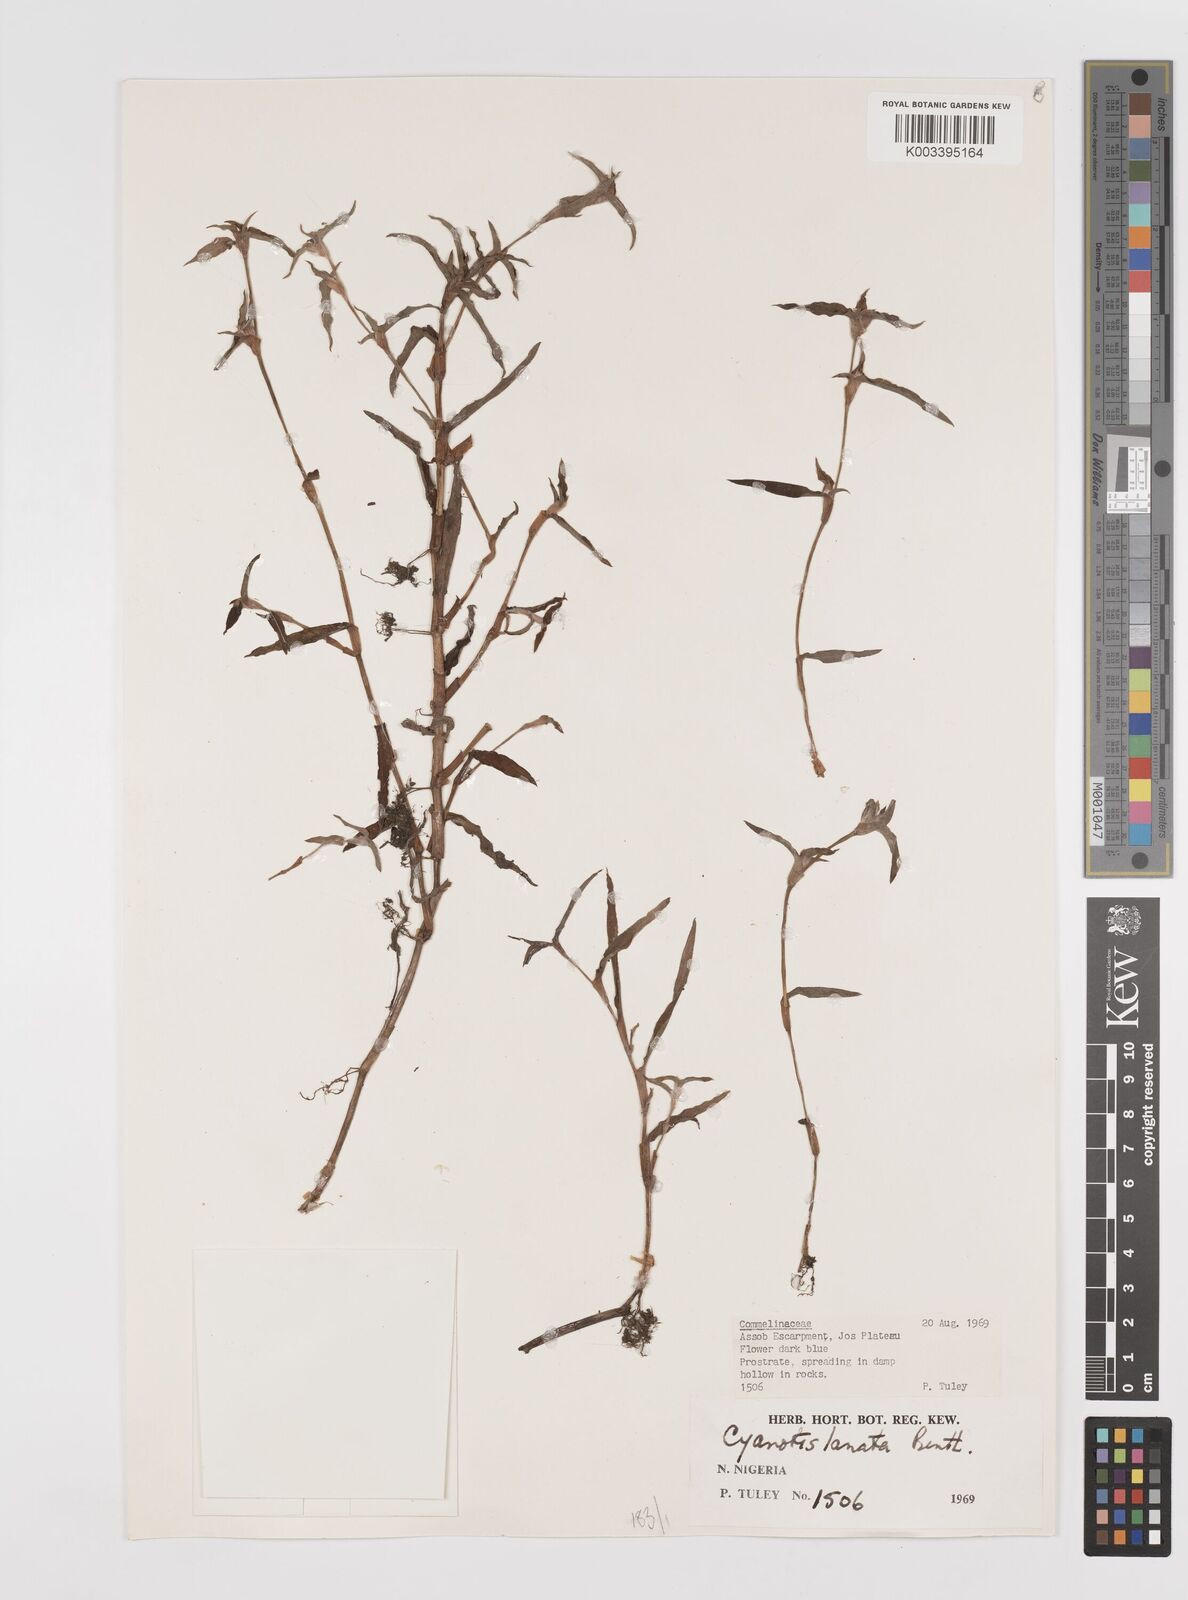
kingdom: Plantae
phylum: Tracheophyta
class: Liliopsida
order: Commelinales
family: Commelinaceae
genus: Cyanotis
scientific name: Cyanotis lanata
